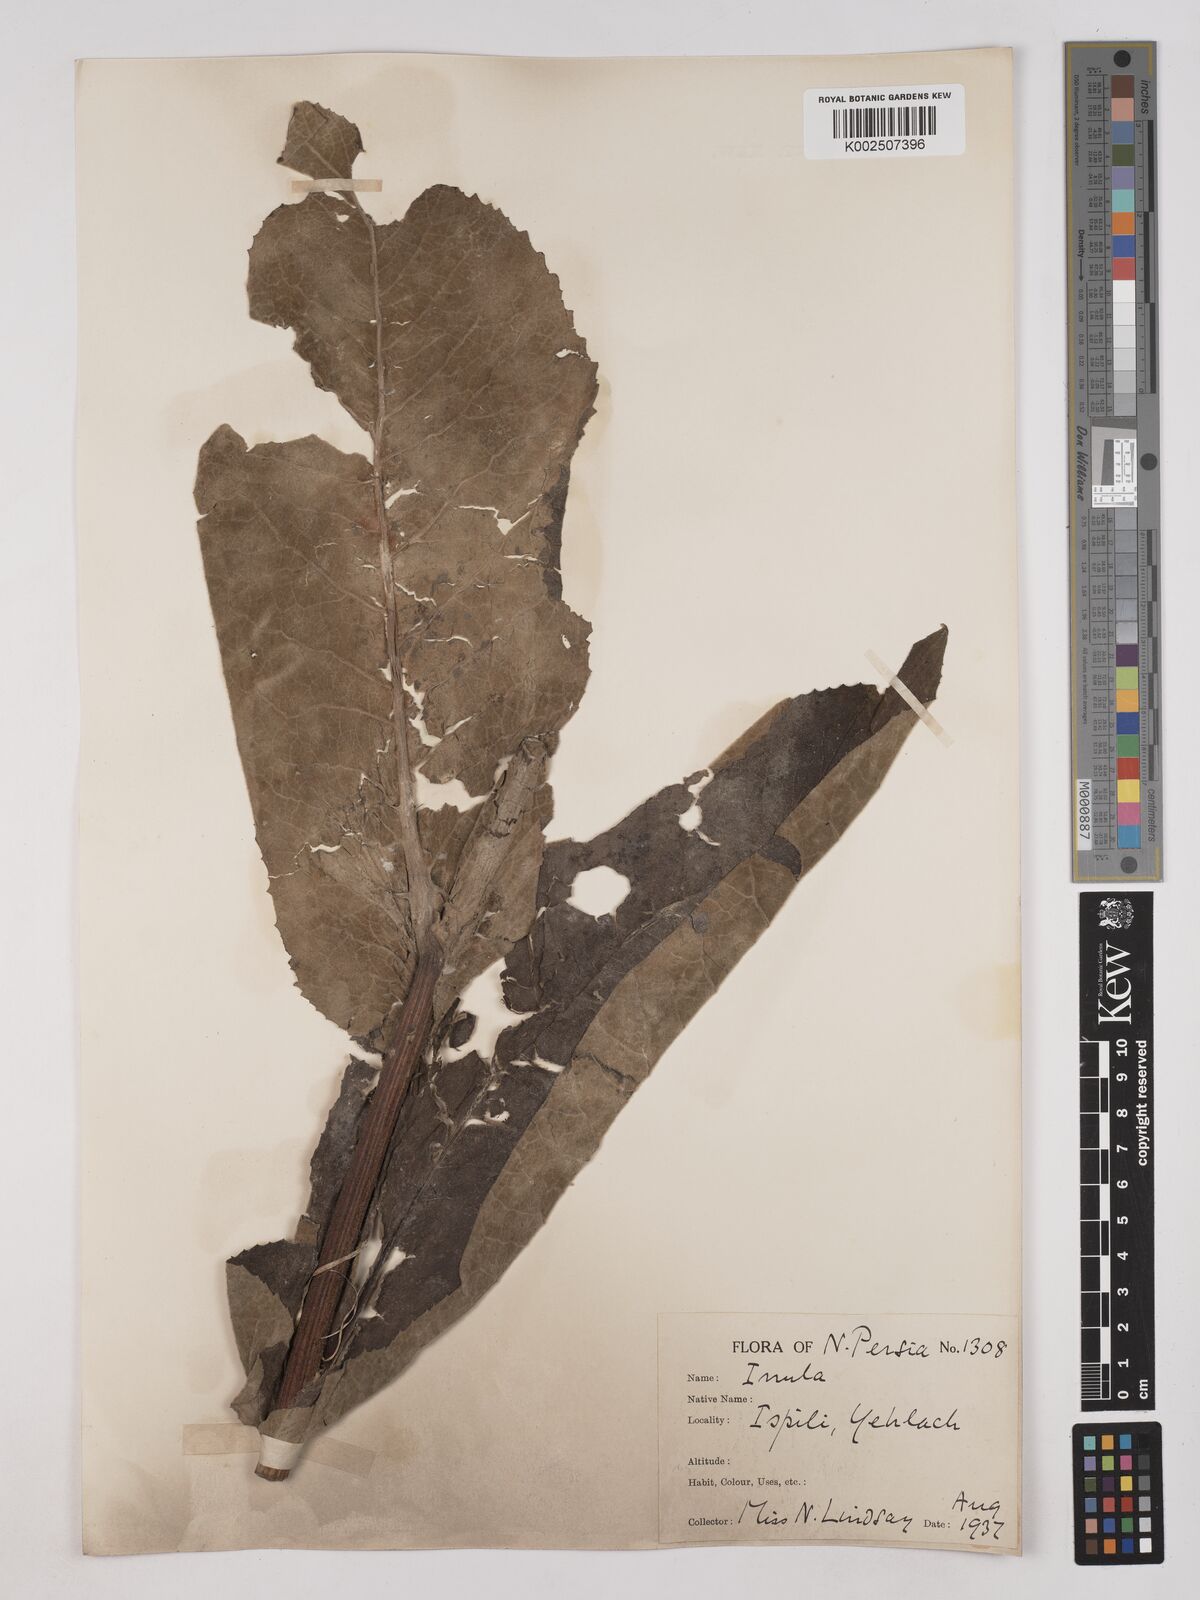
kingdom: Plantae
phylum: Tracheophyta
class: Magnoliopsida
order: Asterales
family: Asteraceae
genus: Inula
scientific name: Inula helenium
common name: Elecampane
